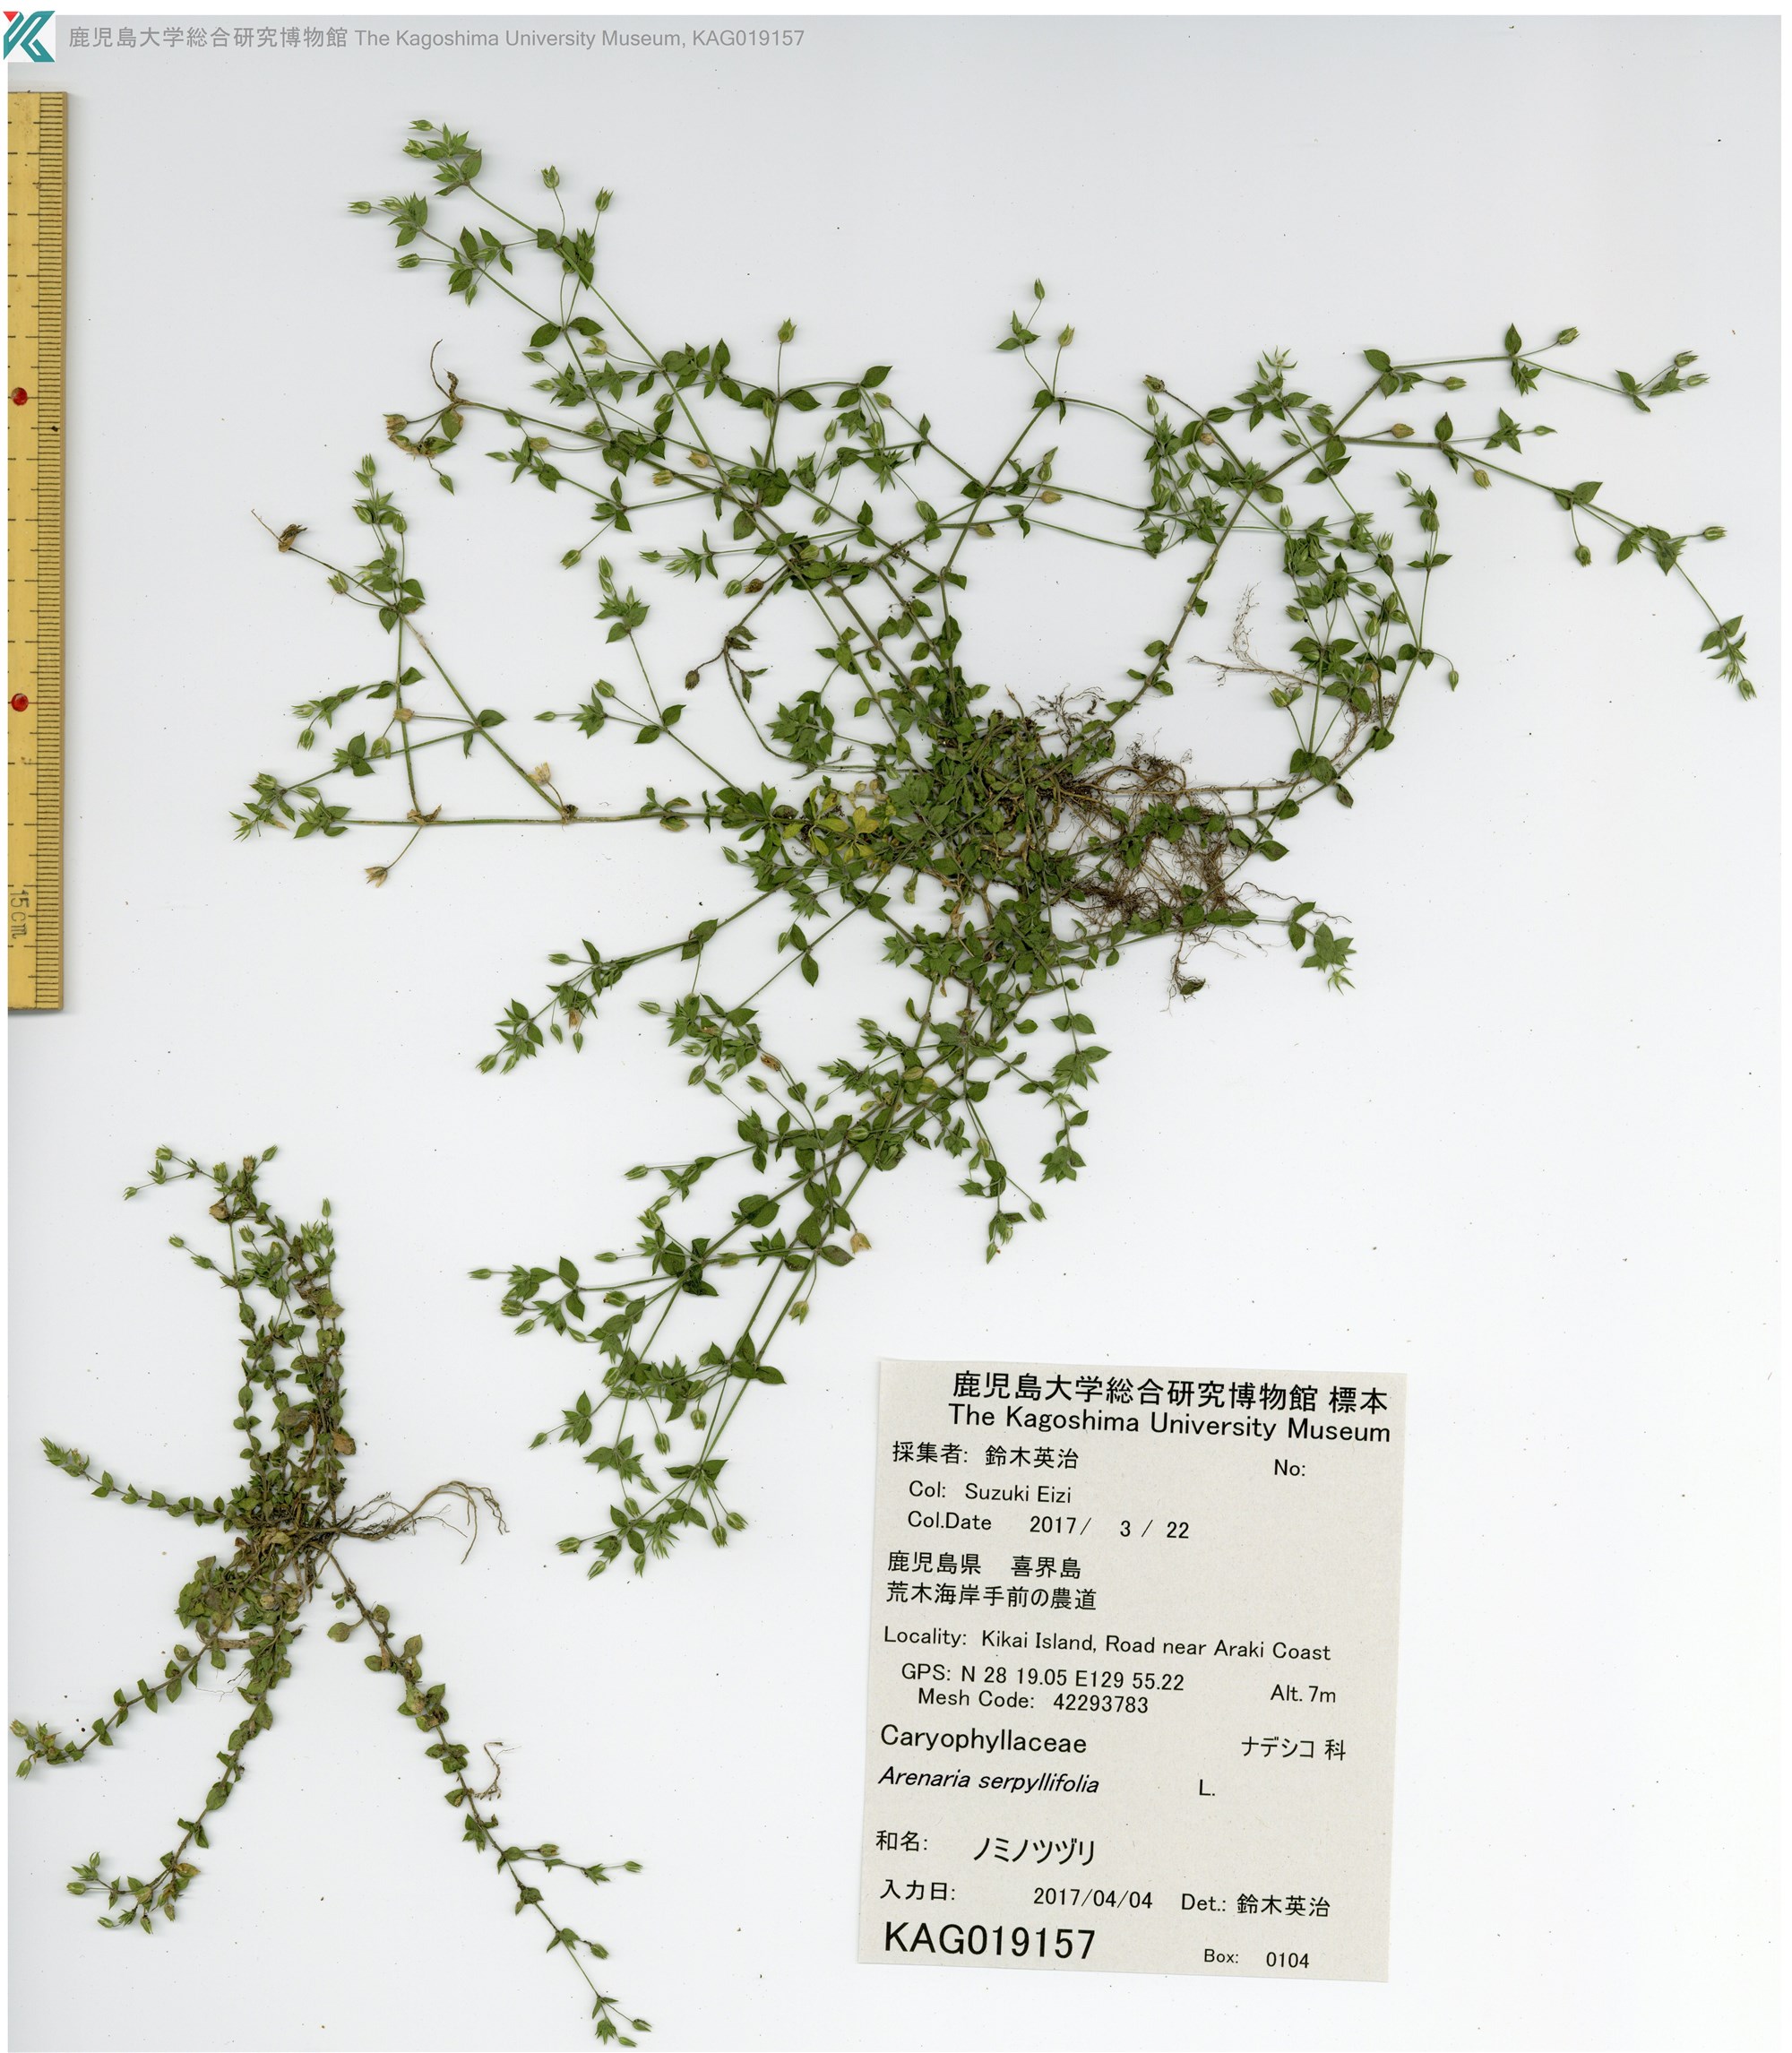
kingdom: Plantae
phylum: Tracheophyta
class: Magnoliopsida
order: Caryophyllales
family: Caryophyllaceae
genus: Arenaria
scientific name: Arenaria serpyllifolia
